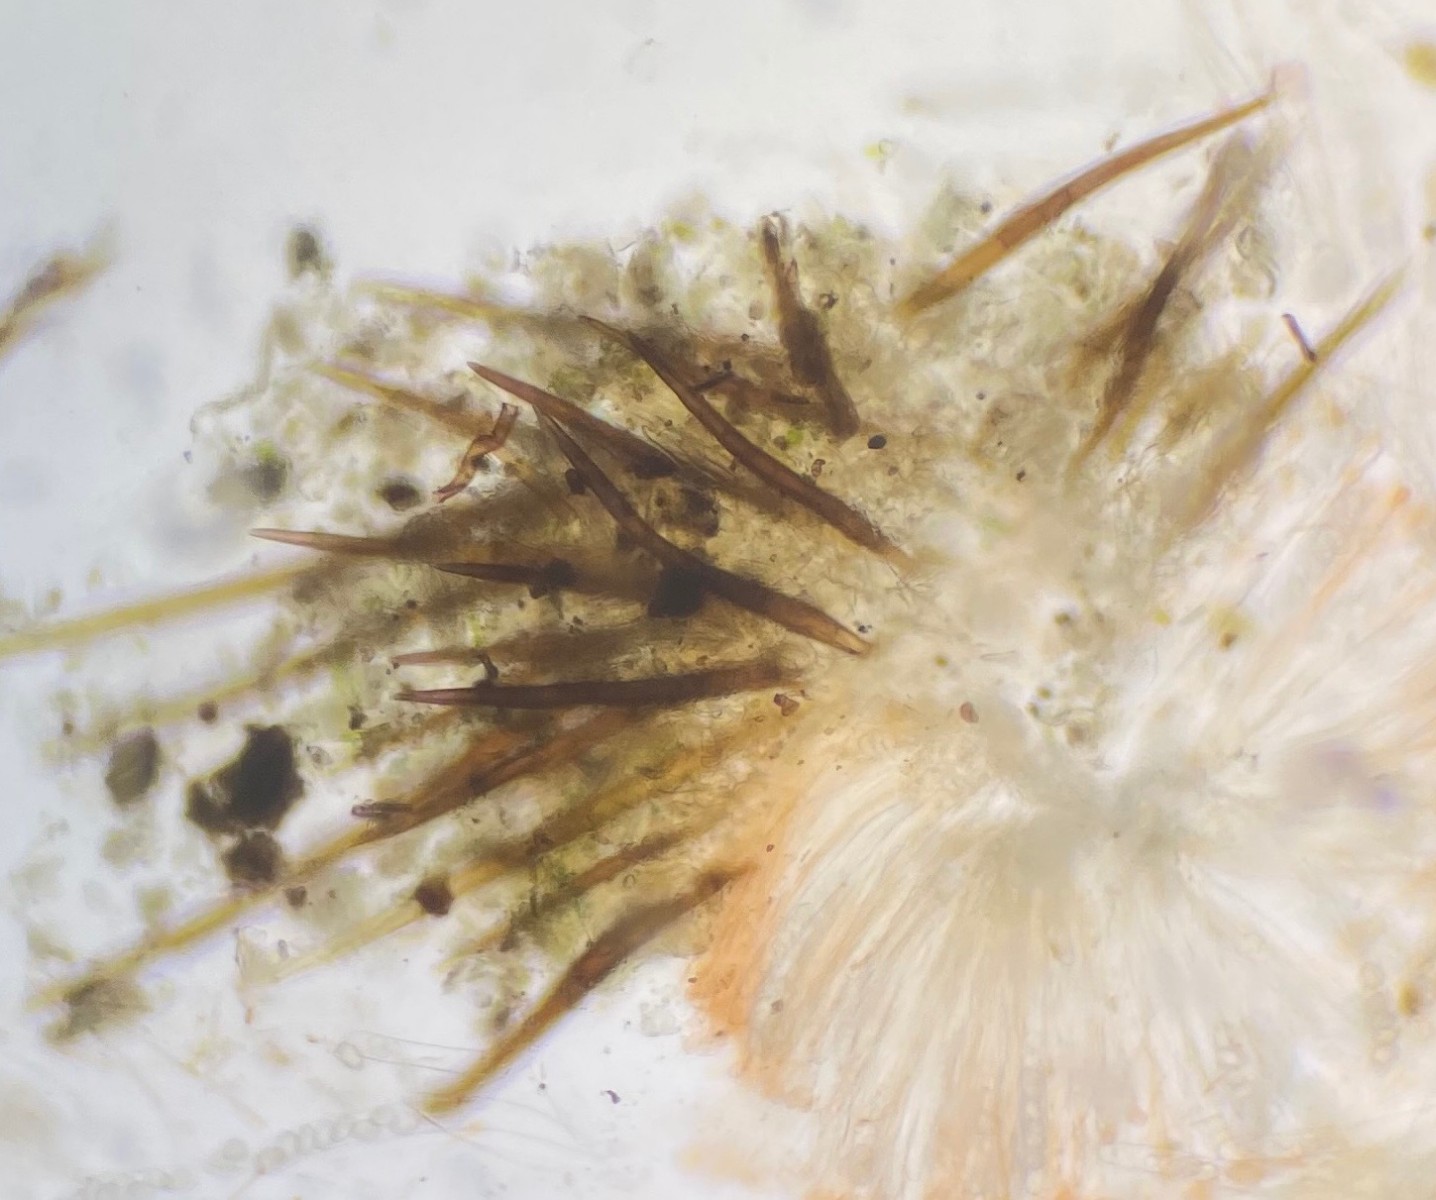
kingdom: Fungi
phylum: Ascomycota
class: Pezizomycetes
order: Pezizales
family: Pyronemataceae
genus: Scutellinia
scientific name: Scutellinia
